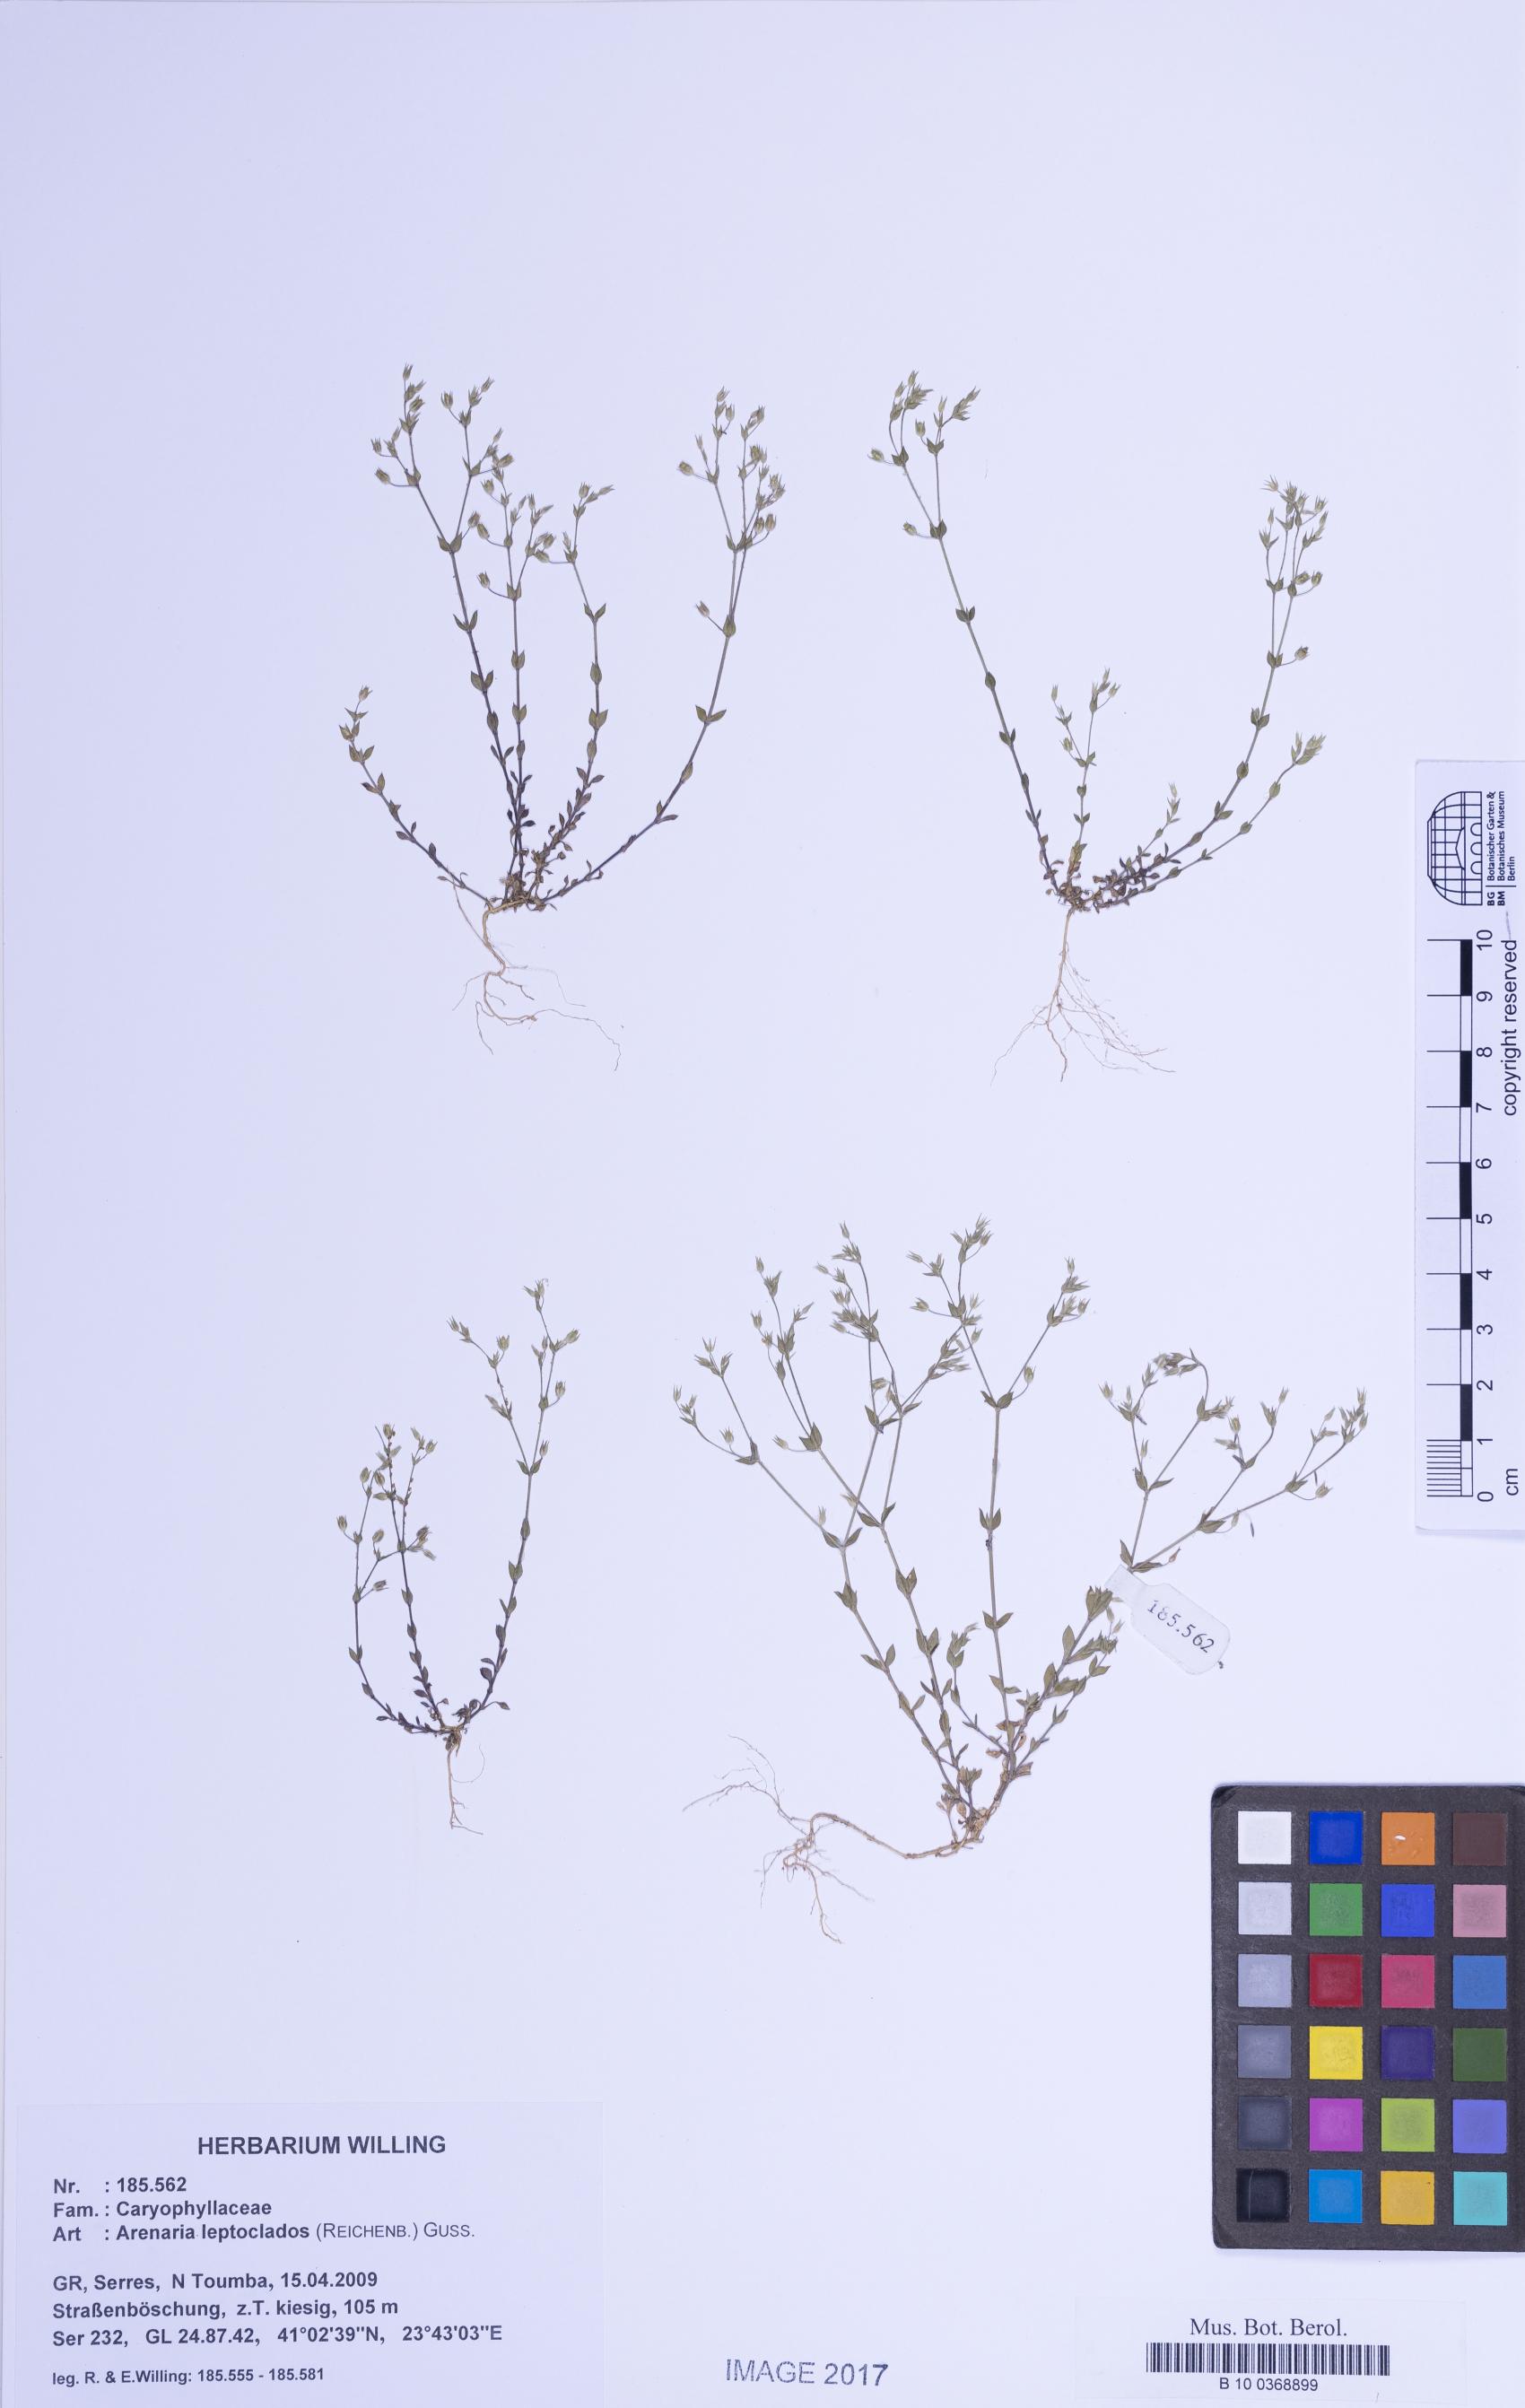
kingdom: Plantae
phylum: Tracheophyta
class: Magnoliopsida
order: Caryophyllales
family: Caryophyllaceae
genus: Arenaria
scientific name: Arenaria leptoclados
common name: Thyme-leaved sandwort
